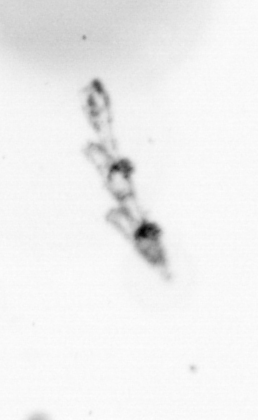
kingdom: Animalia
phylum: Chordata
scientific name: Chordata
